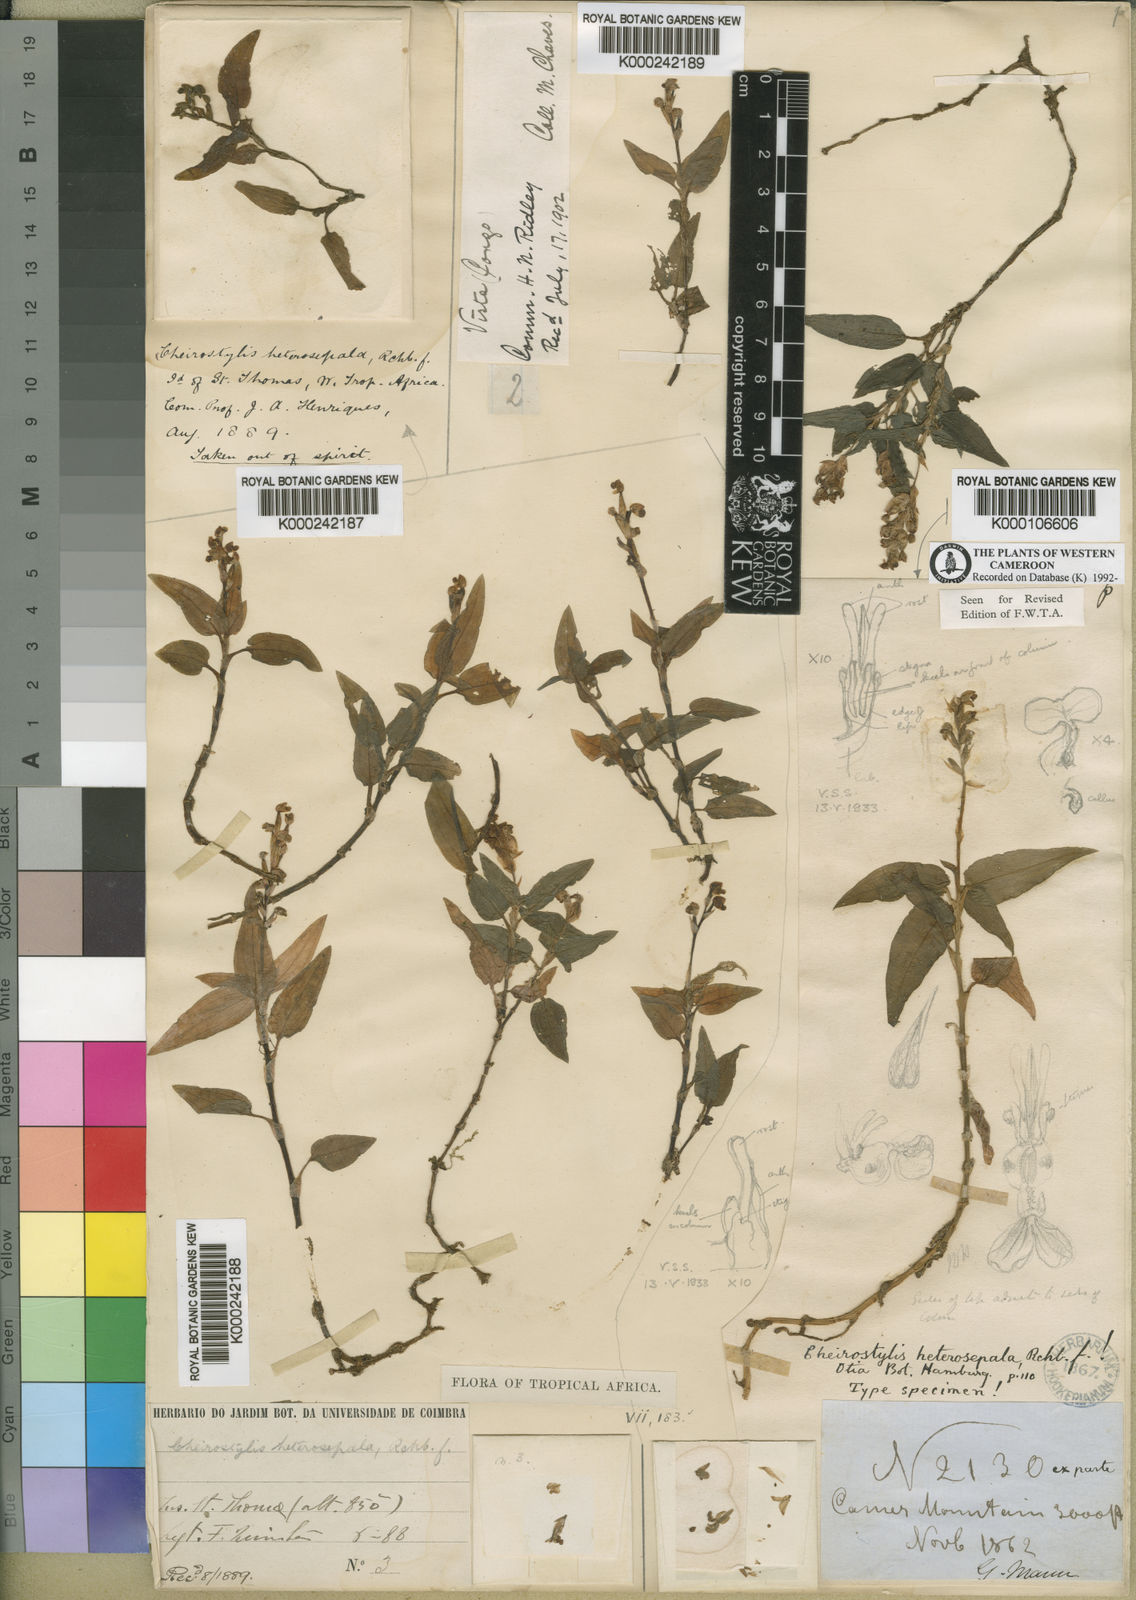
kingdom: Plantae
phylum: Tracheophyta
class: Liliopsida
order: Asparagales
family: Orchidaceae
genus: Hetaeria
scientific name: Hetaeria heterosepala
